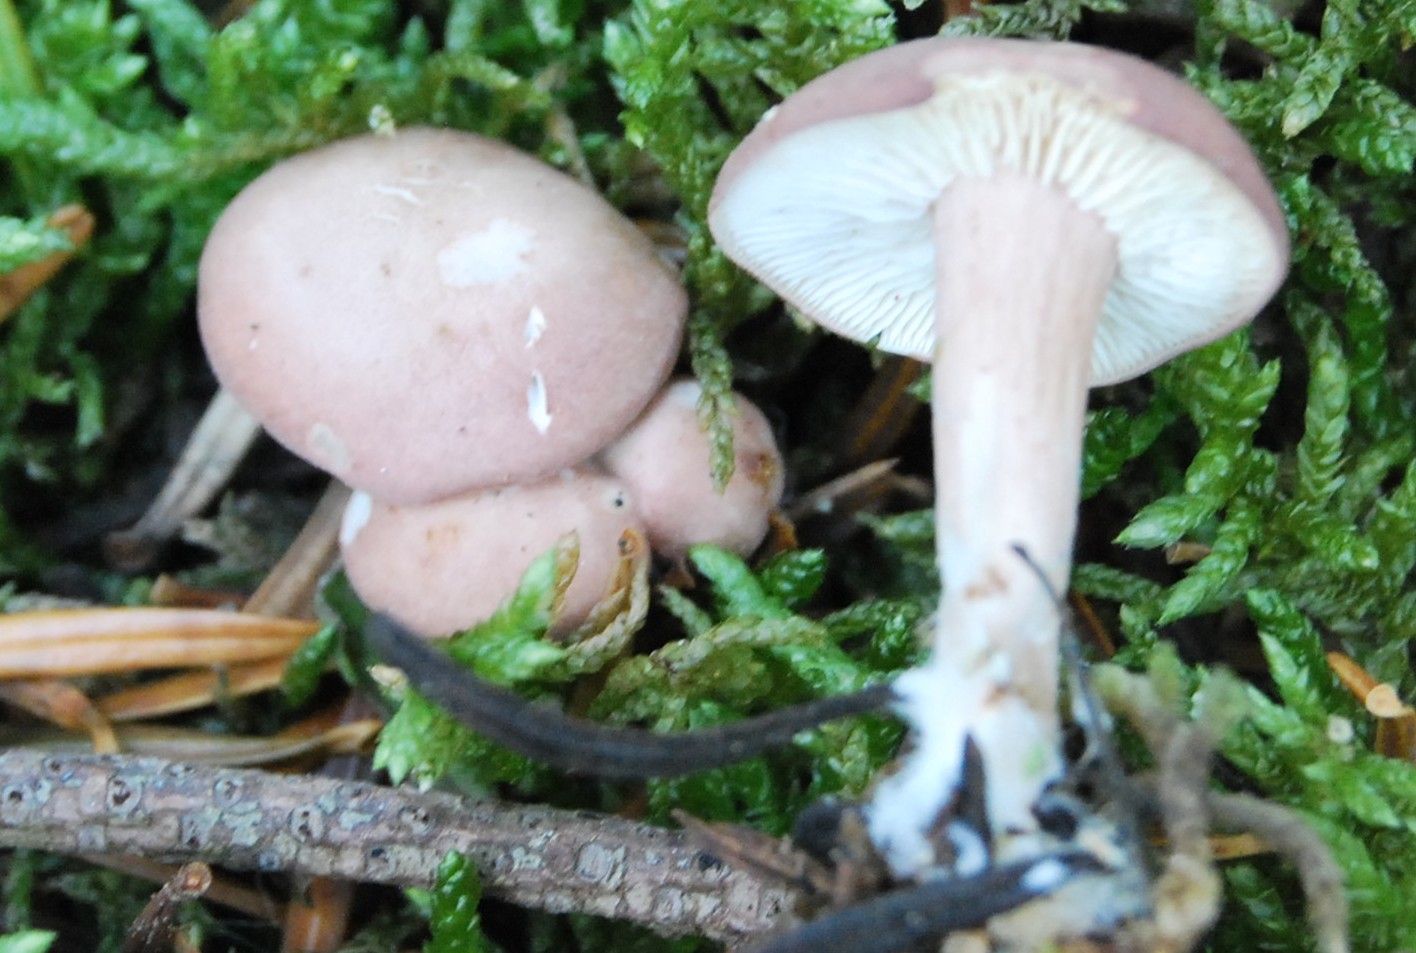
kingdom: Fungi
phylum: Basidiomycota
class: Agaricomycetes
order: Agaricales
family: Lyophyllaceae
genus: Calocybe
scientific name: Calocybe carnea
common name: rosa fagerhat
